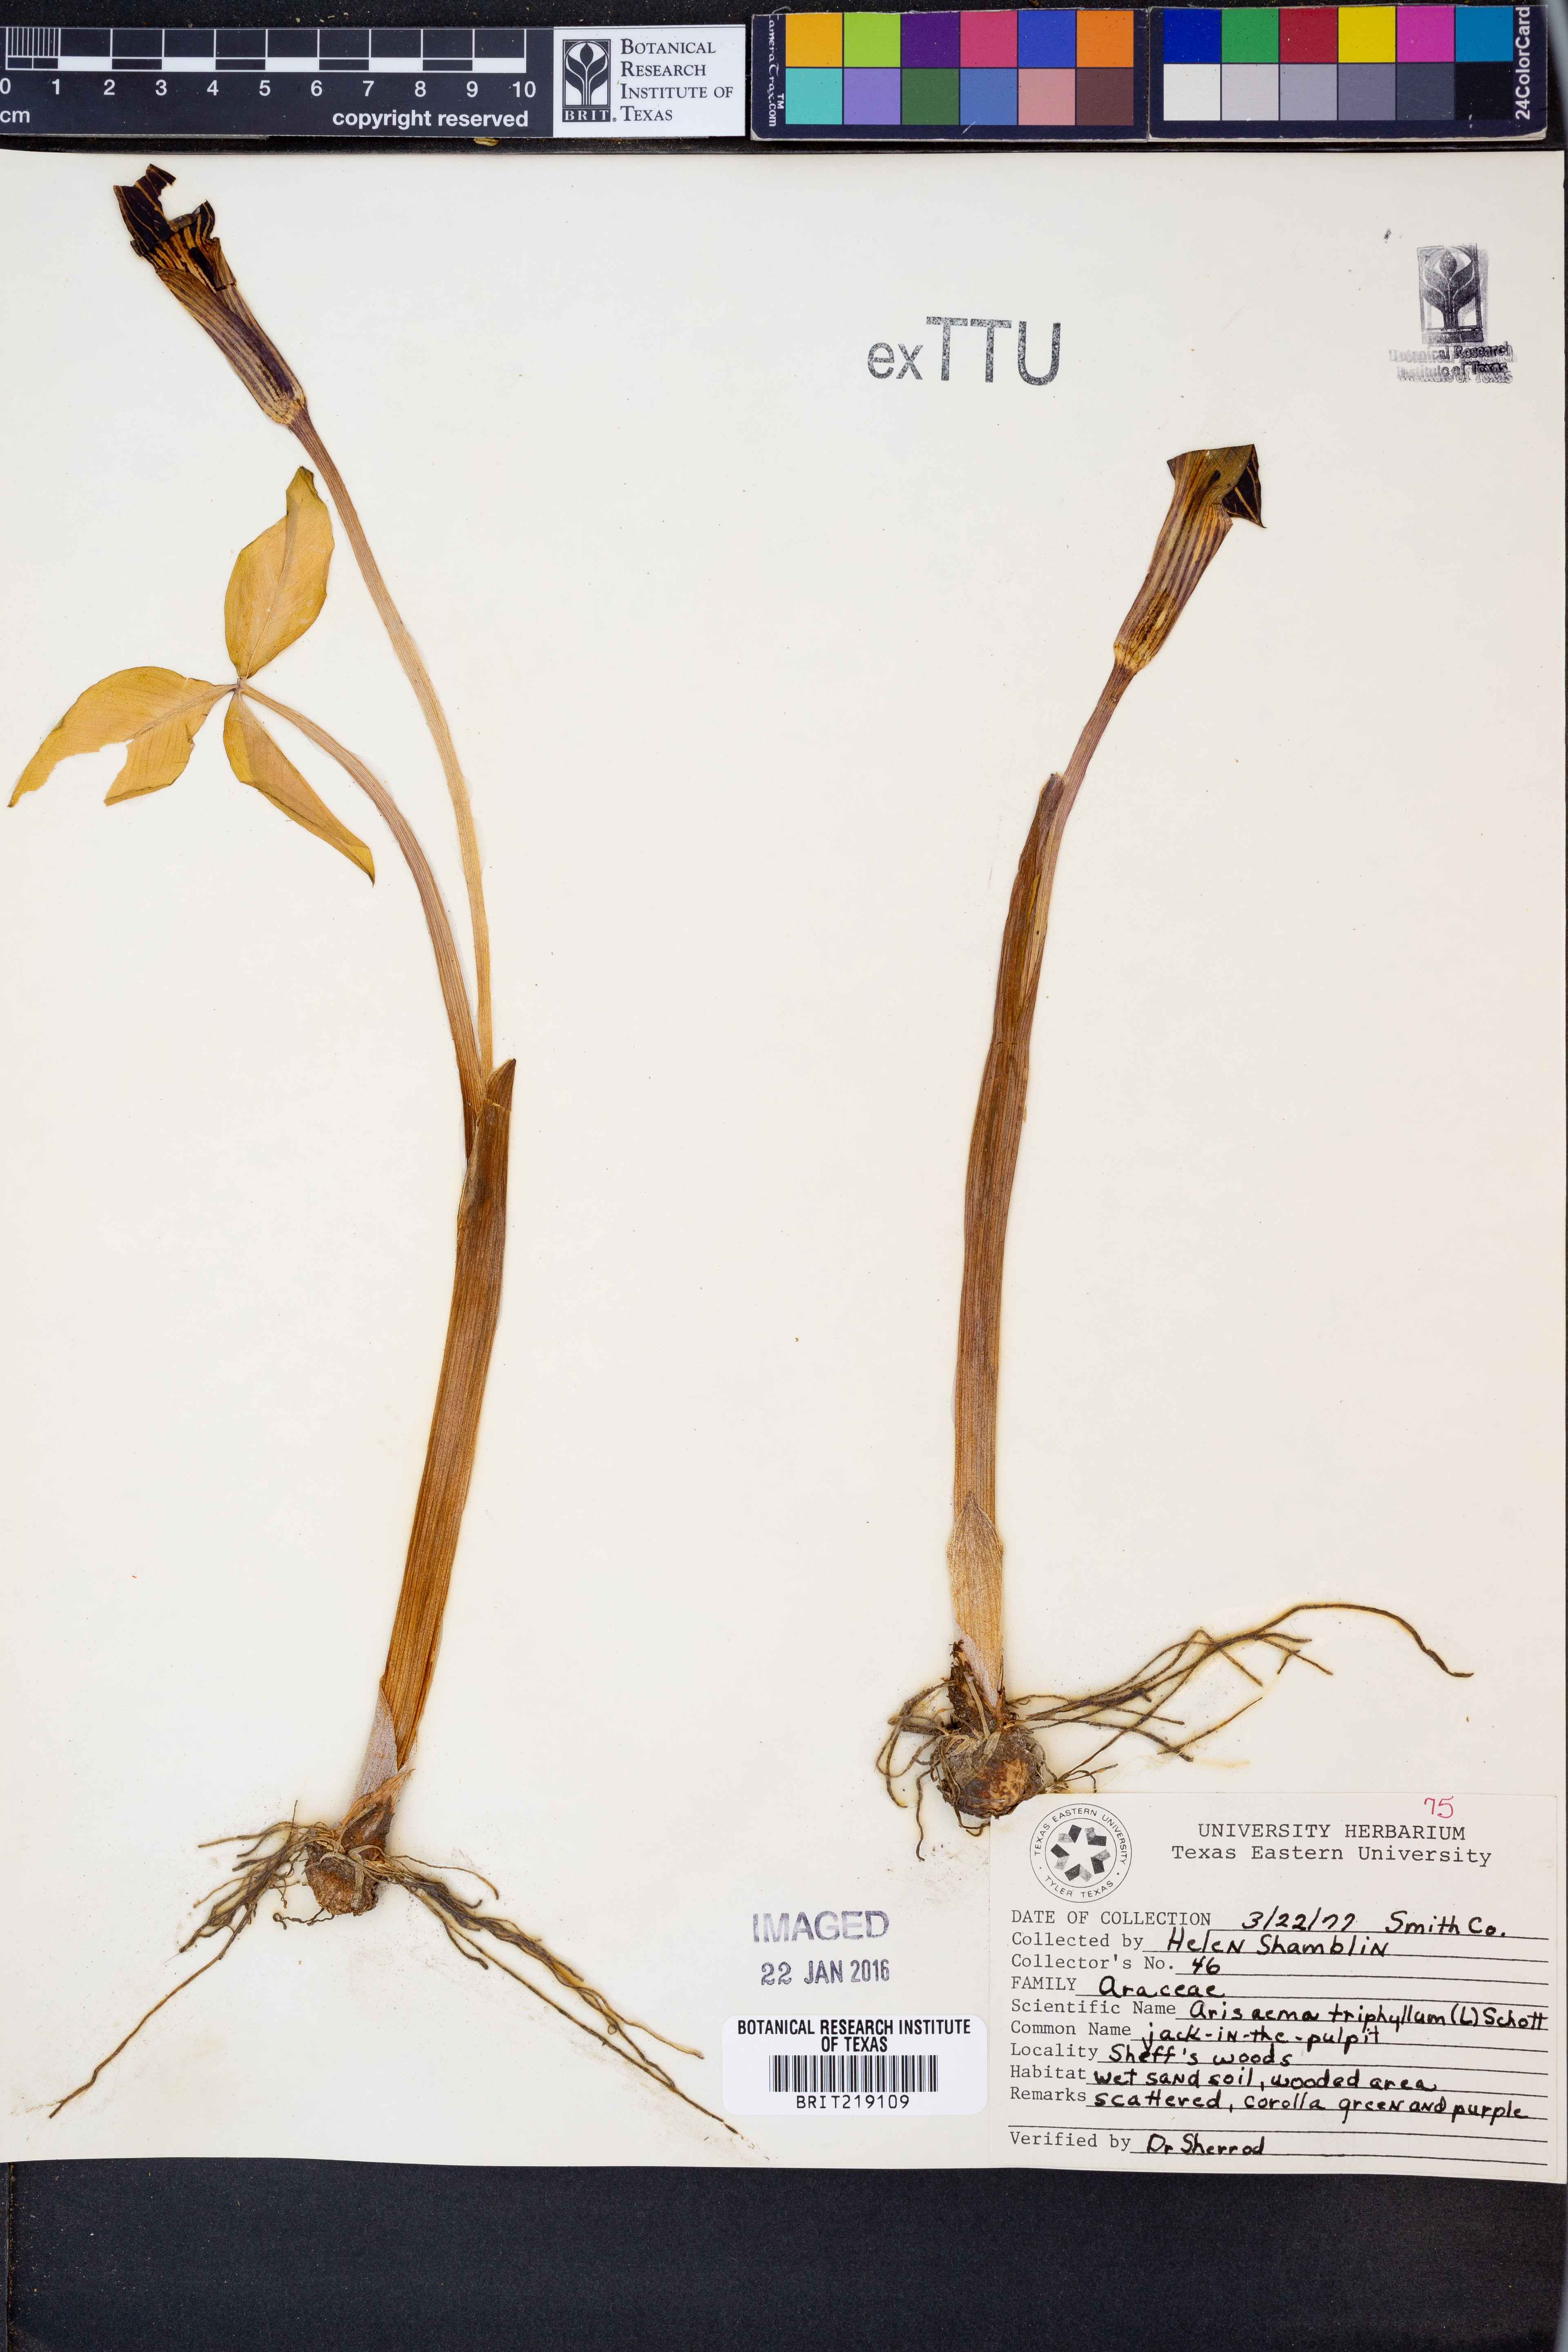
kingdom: Plantae
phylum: Tracheophyta
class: Liliopsida
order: Alismatales
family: Araceae
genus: Arisaema
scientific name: Arisaema triphyllum
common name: Jack-in-the-pulpit
